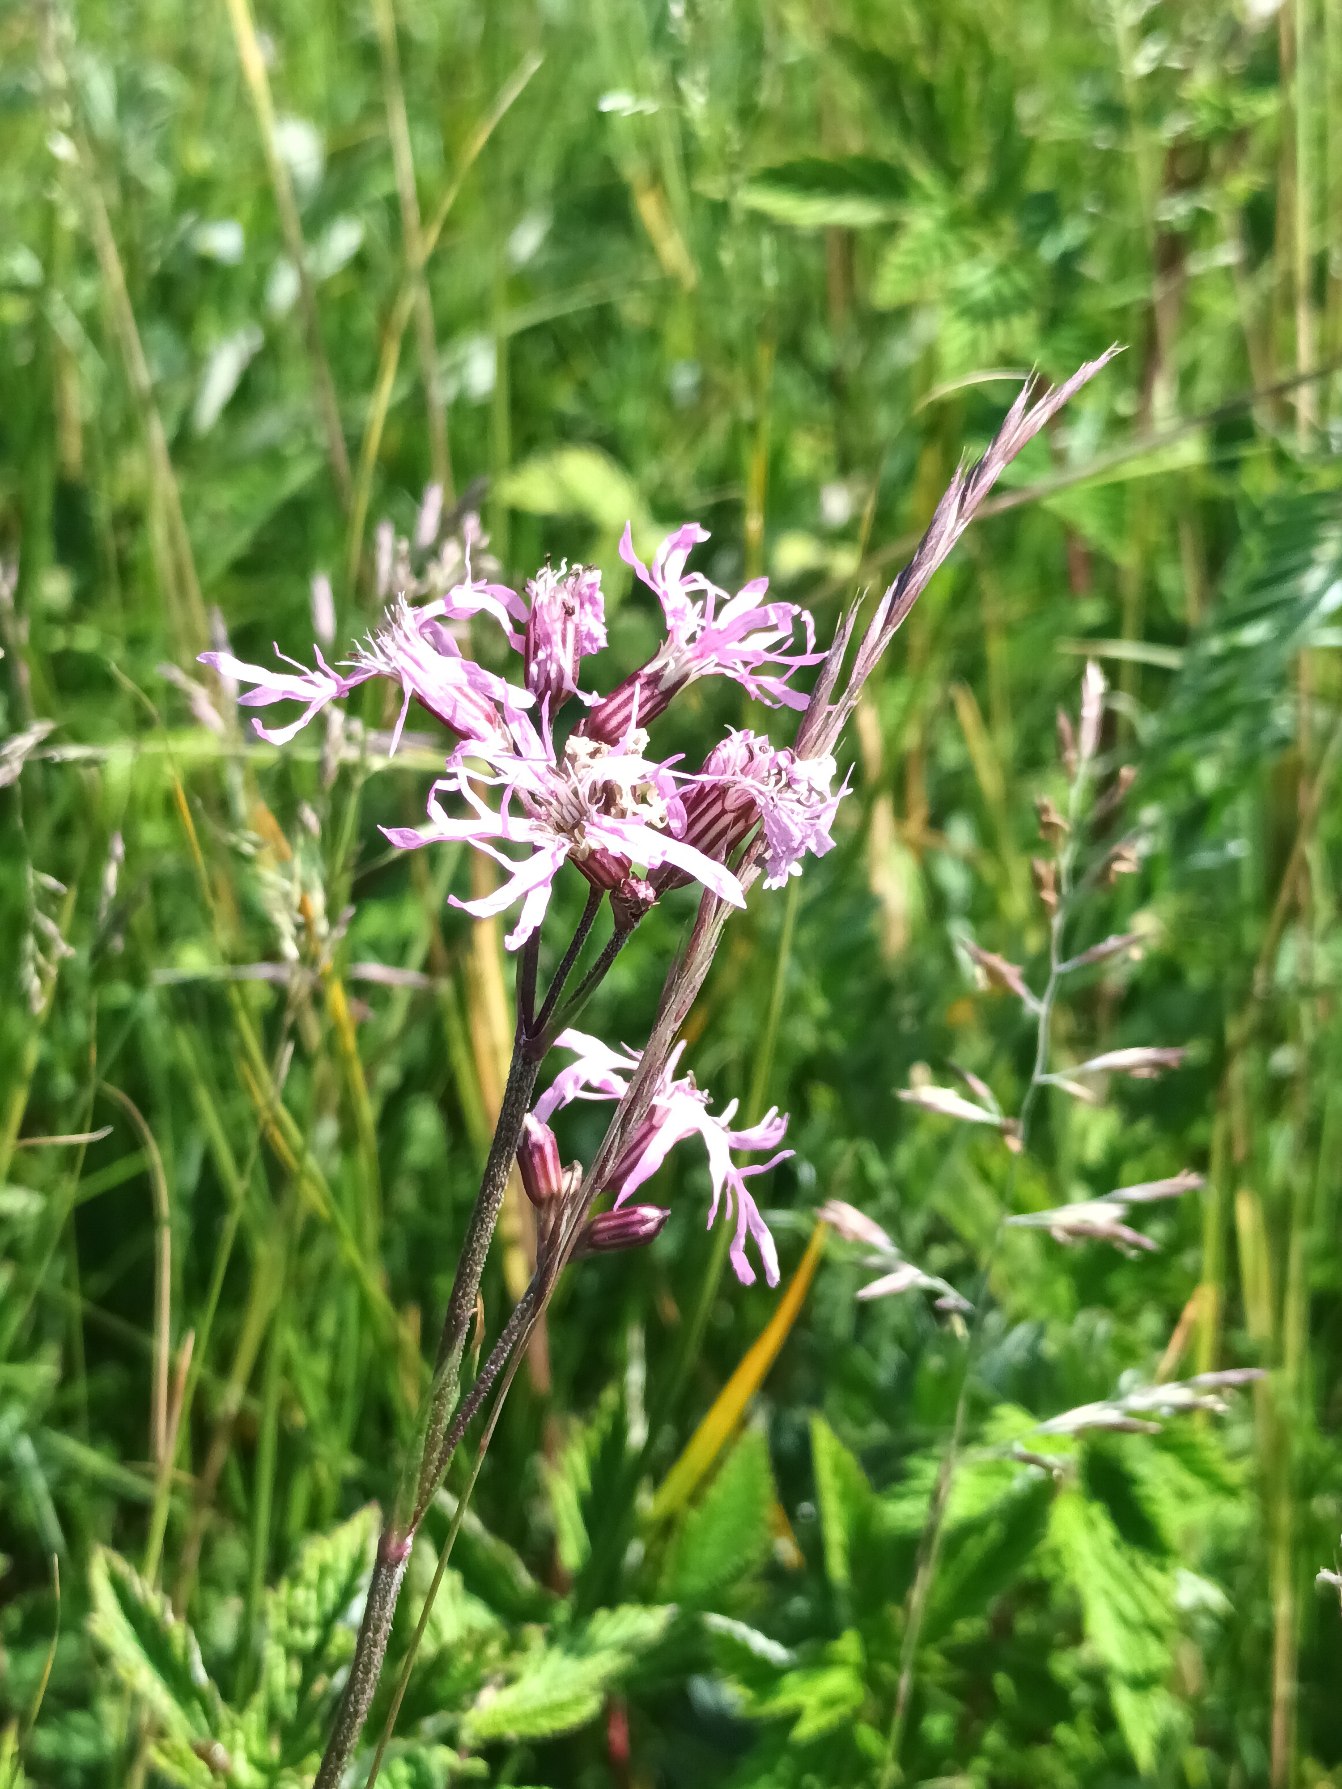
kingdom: Plantae
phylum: Tracheophyta
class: Magnoliopsida
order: Caryophyllales
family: Caryophyllaceae
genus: Silene
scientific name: Silene flos-cuculi
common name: Trævlekrone
